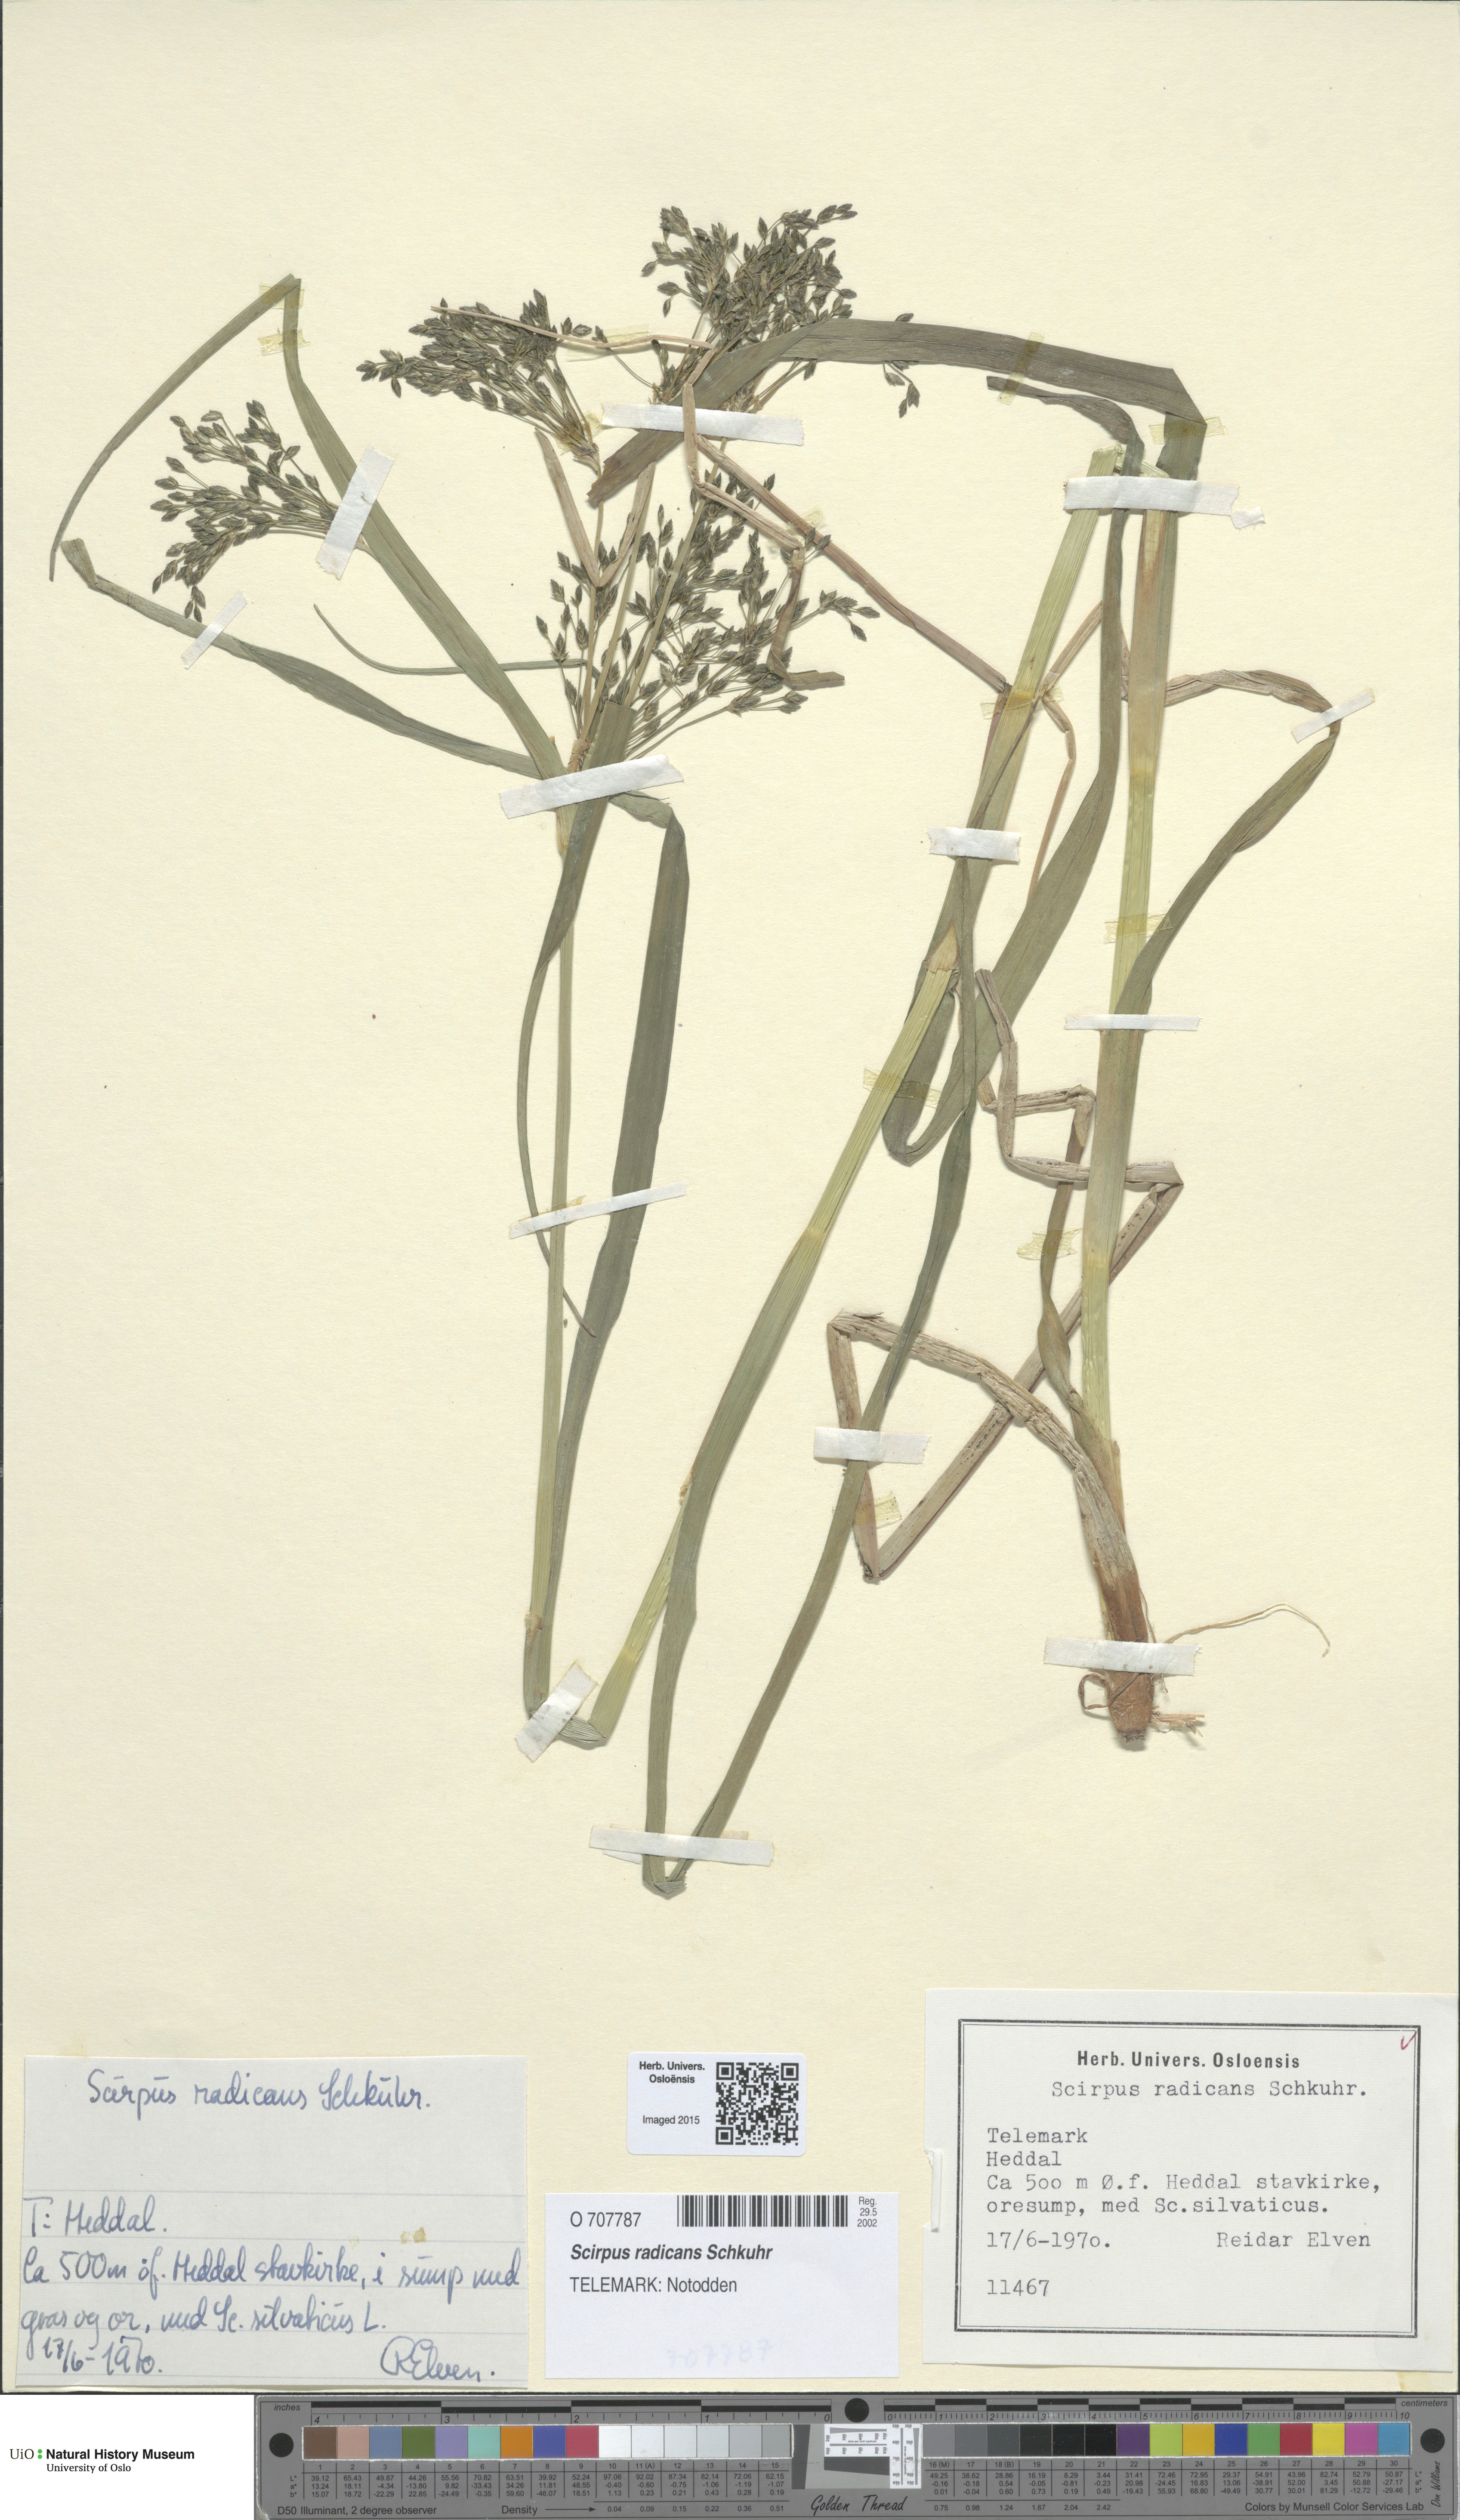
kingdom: Plantae
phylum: Tracheophyta
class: Liliopsida
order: Poales
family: Cyperaceae
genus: Scirpus
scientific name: Scirpus radicans
